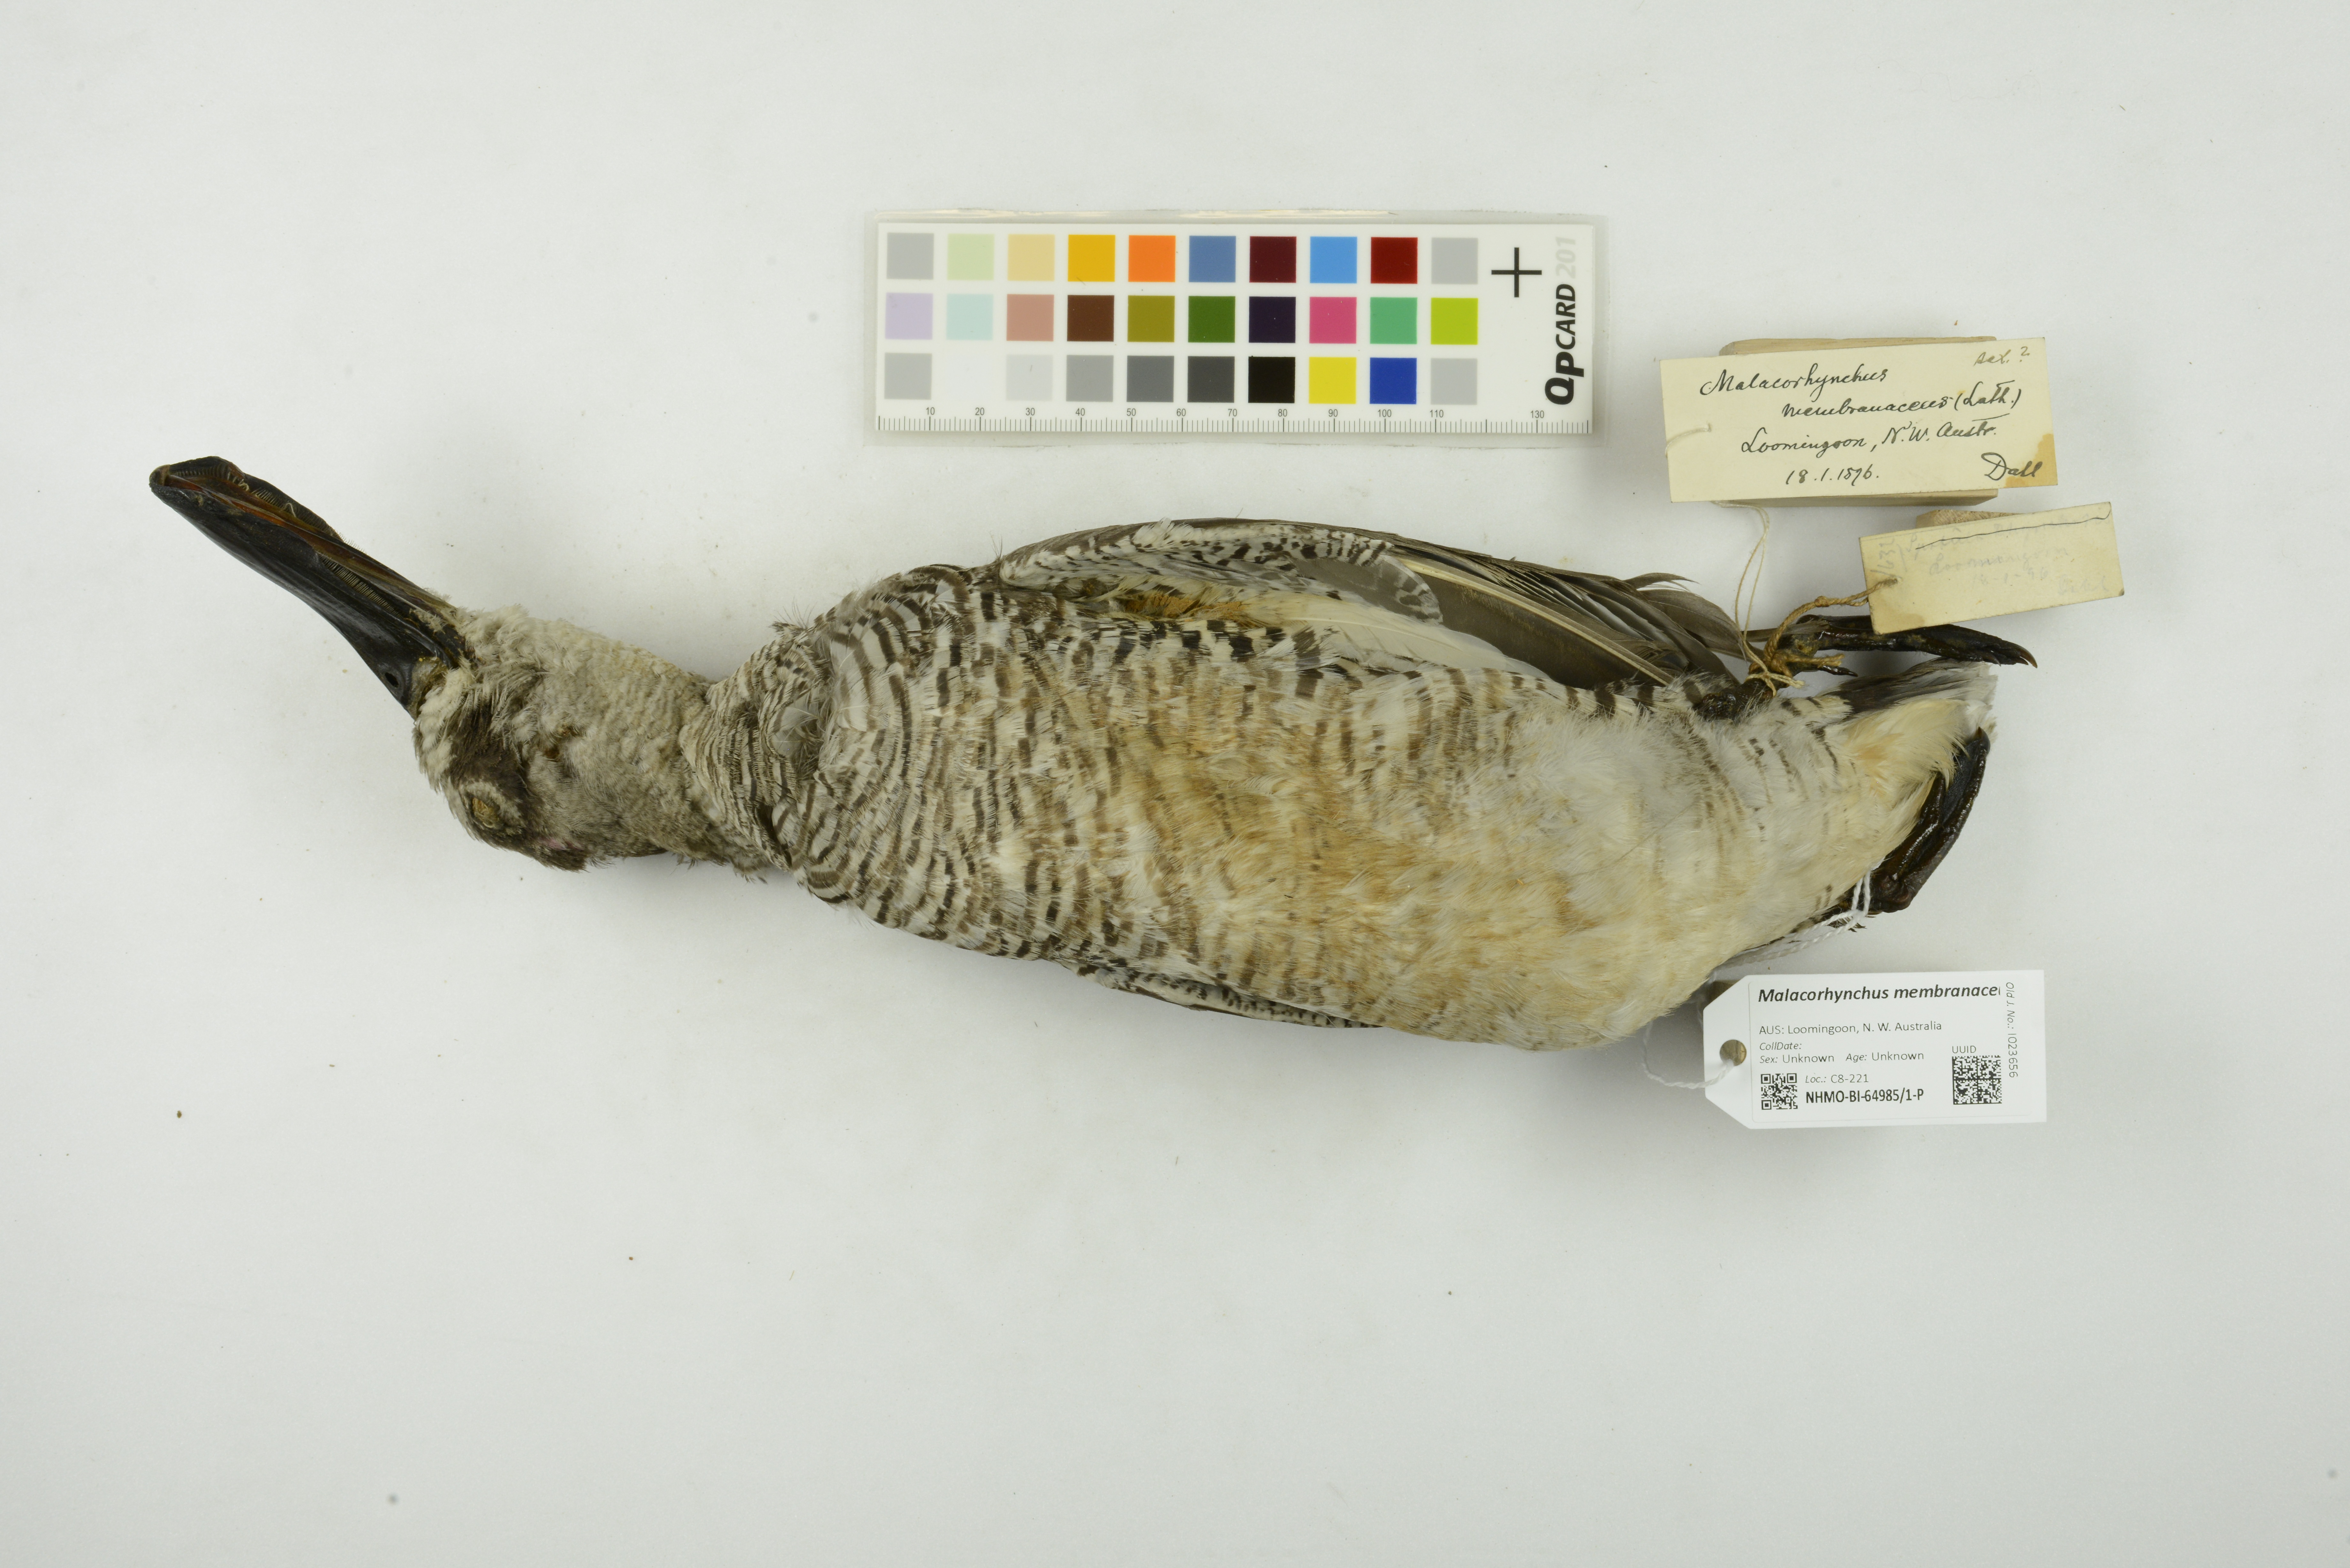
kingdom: Animalia
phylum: Chordata
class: Aves
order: Anseriformes
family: Anatidae
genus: Malacorhynchus
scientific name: Malacorhynchus membranaceus
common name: Pink-eared duck
